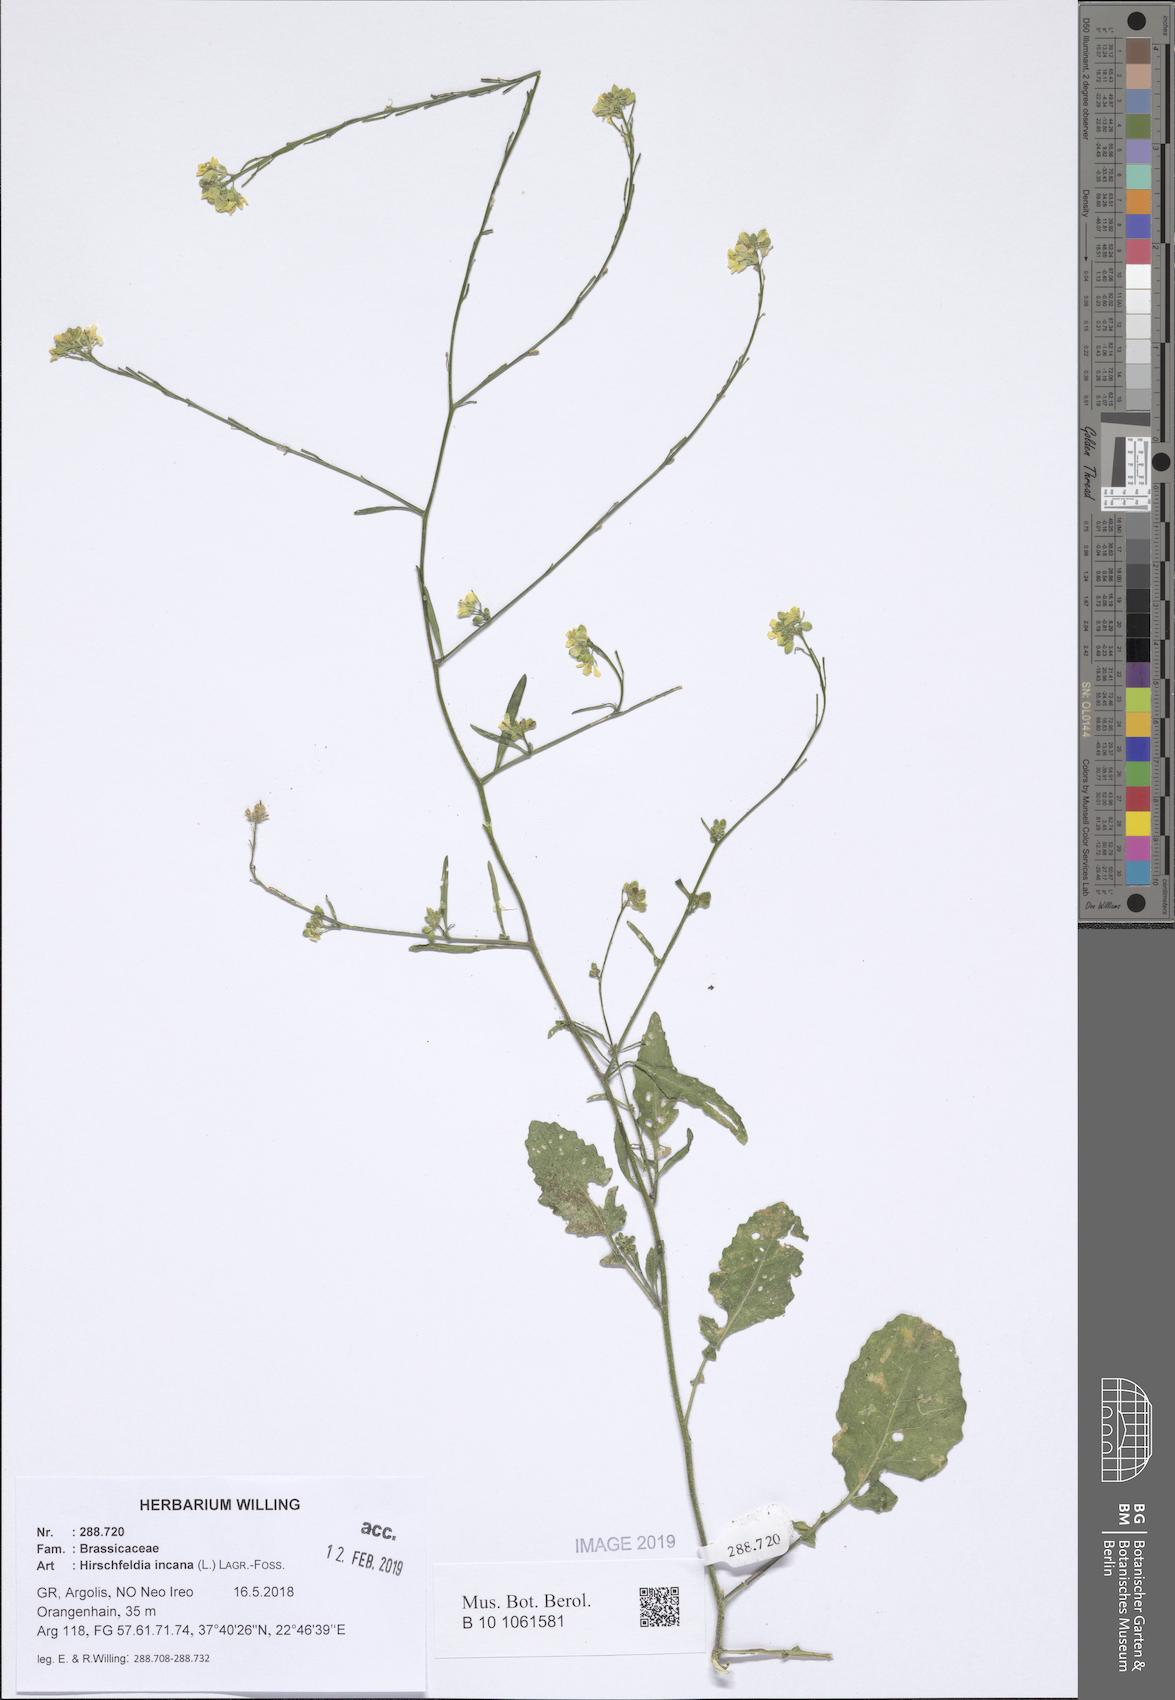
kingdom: Plantae
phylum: Tracheophyta
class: Magnoliopsida
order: Brassicales
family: Brassicaceae
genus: Hirschfeldia
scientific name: Hirschfeldia incana
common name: Hoary mustard
